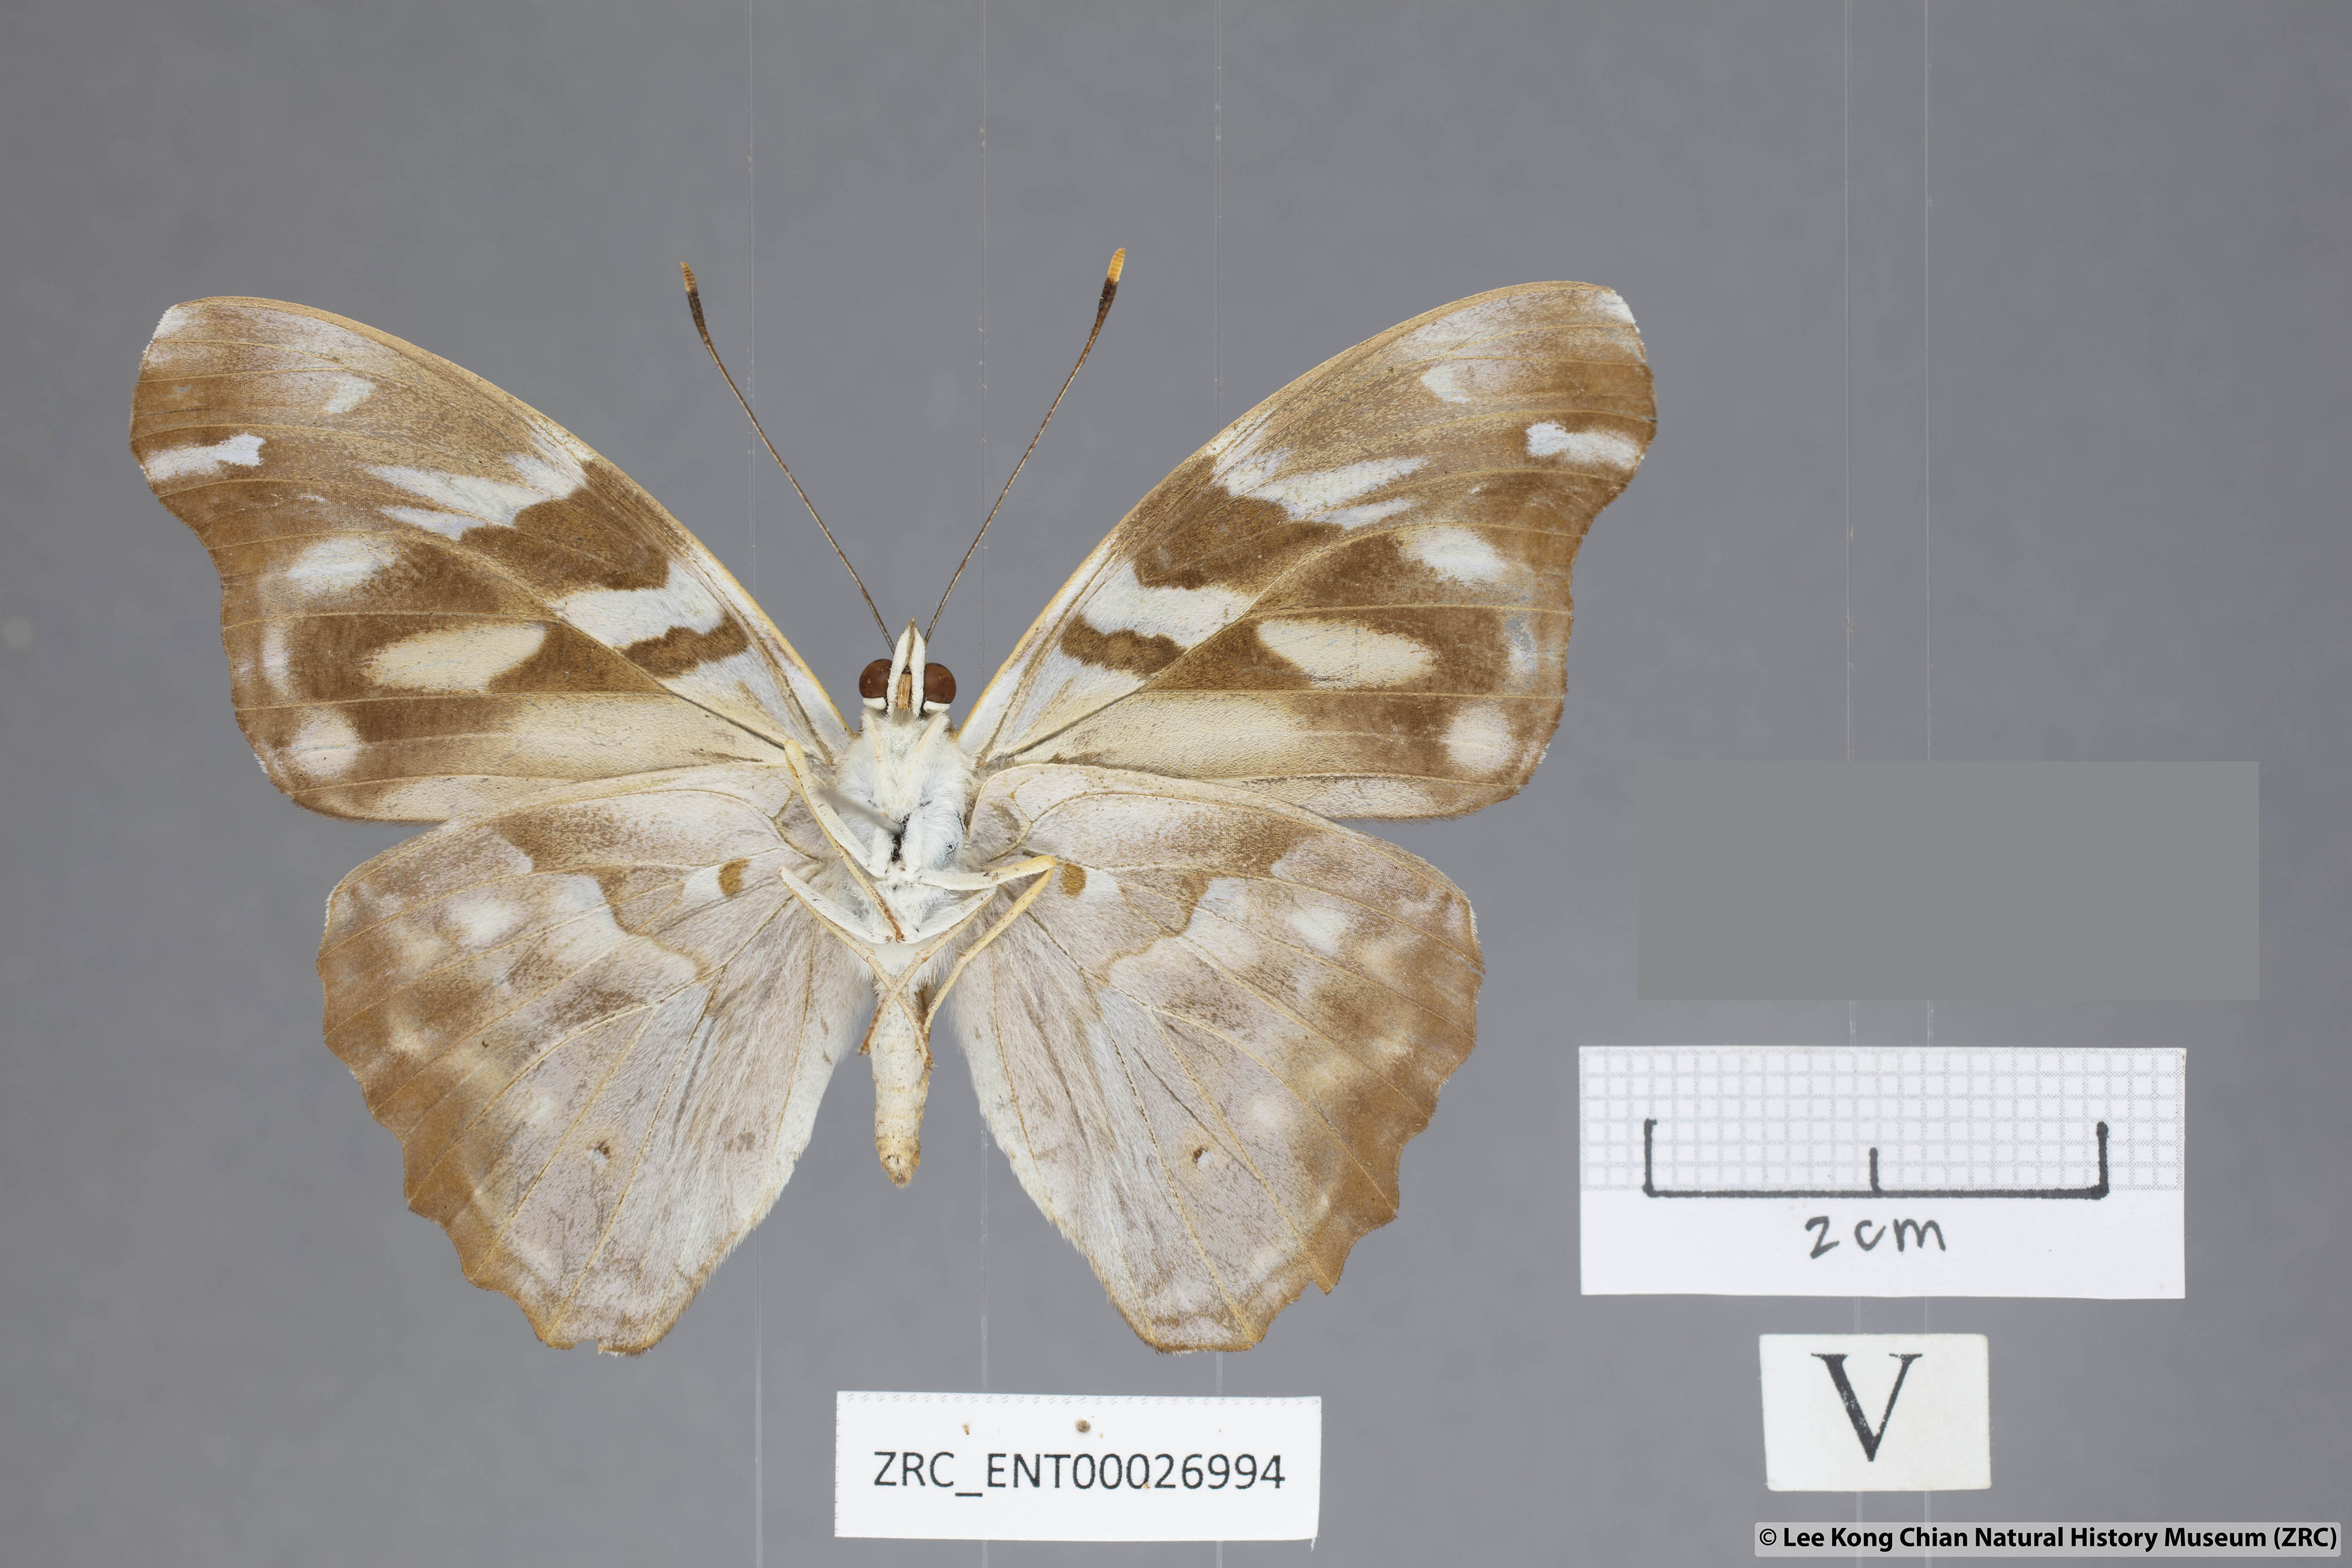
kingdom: Animalia
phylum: Arthropoda
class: Insecta
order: Lepidoptera
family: Nymphalidae
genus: Herona
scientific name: Herona marathus
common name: Yellow pasha
